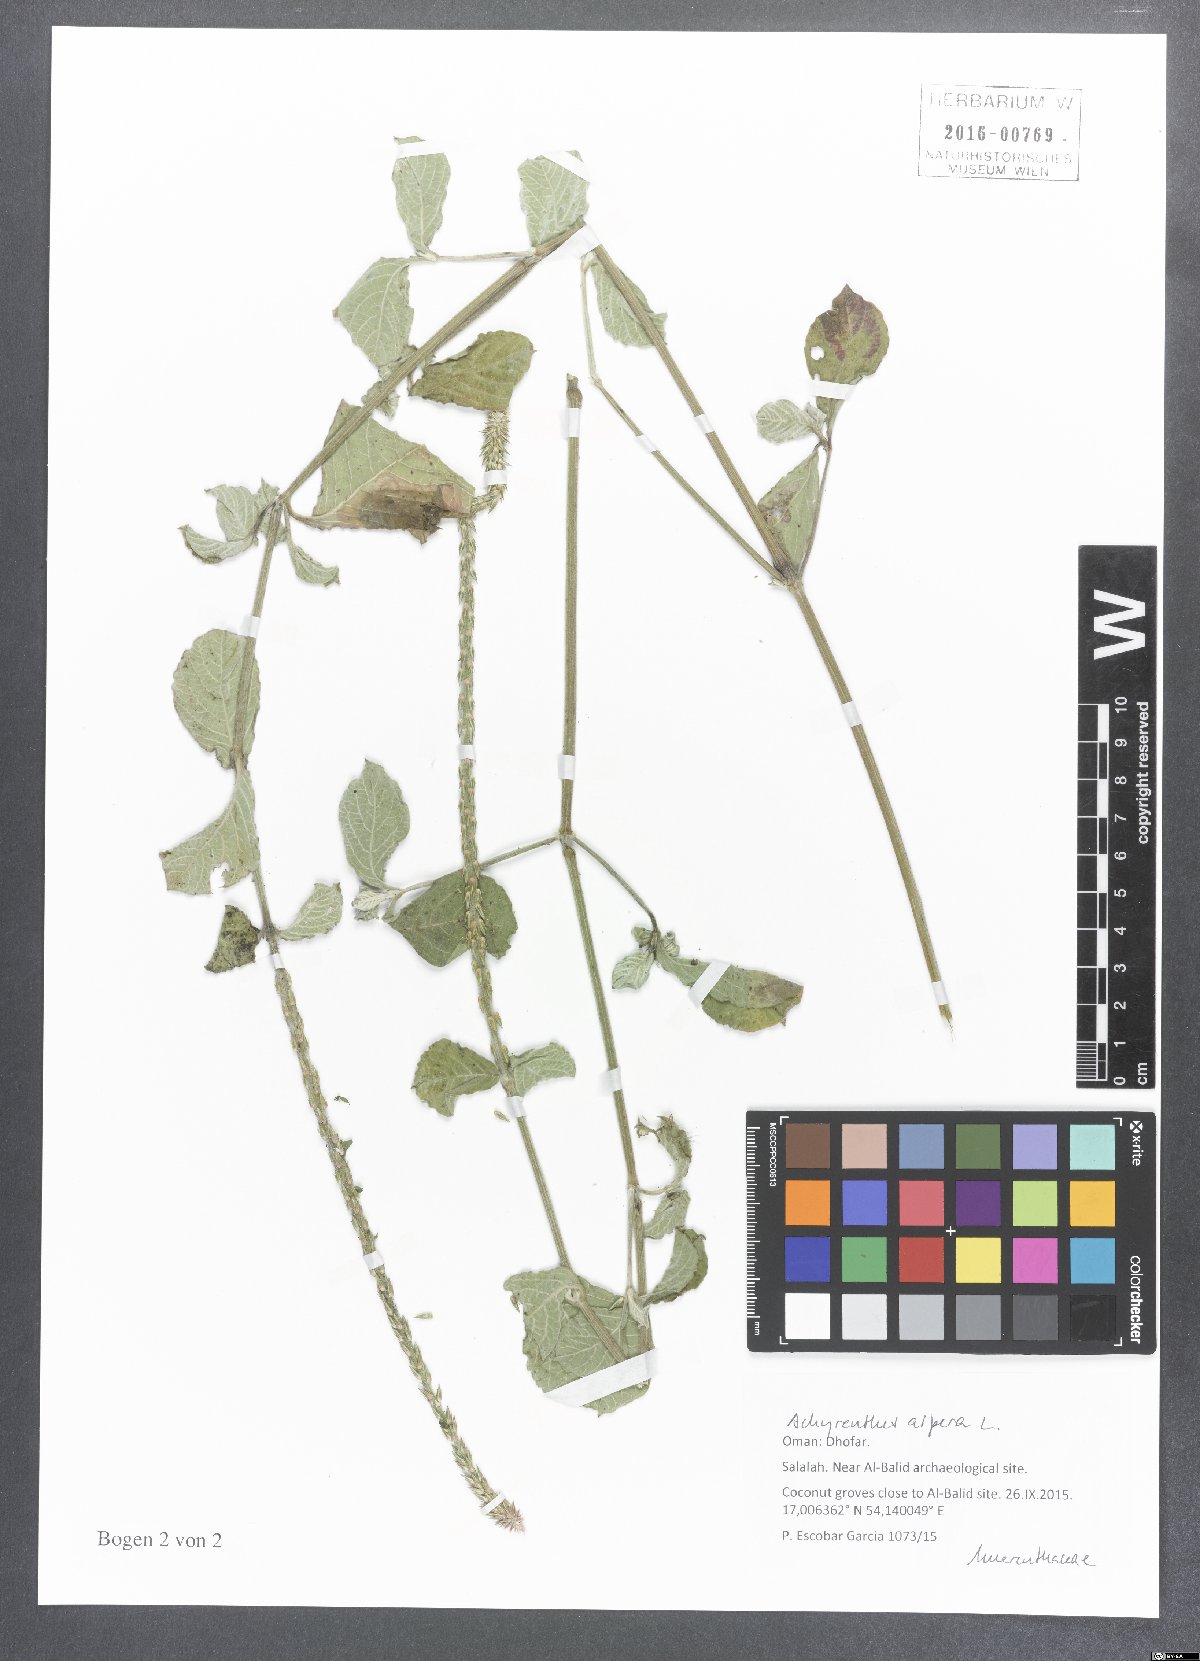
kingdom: Plantae
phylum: Tracheophyta
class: Magnoliopsida
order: Caryophyllales
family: Amaranthaceae
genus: Achyranthes
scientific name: Achyranthes aspera
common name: Devil's horsewhip
